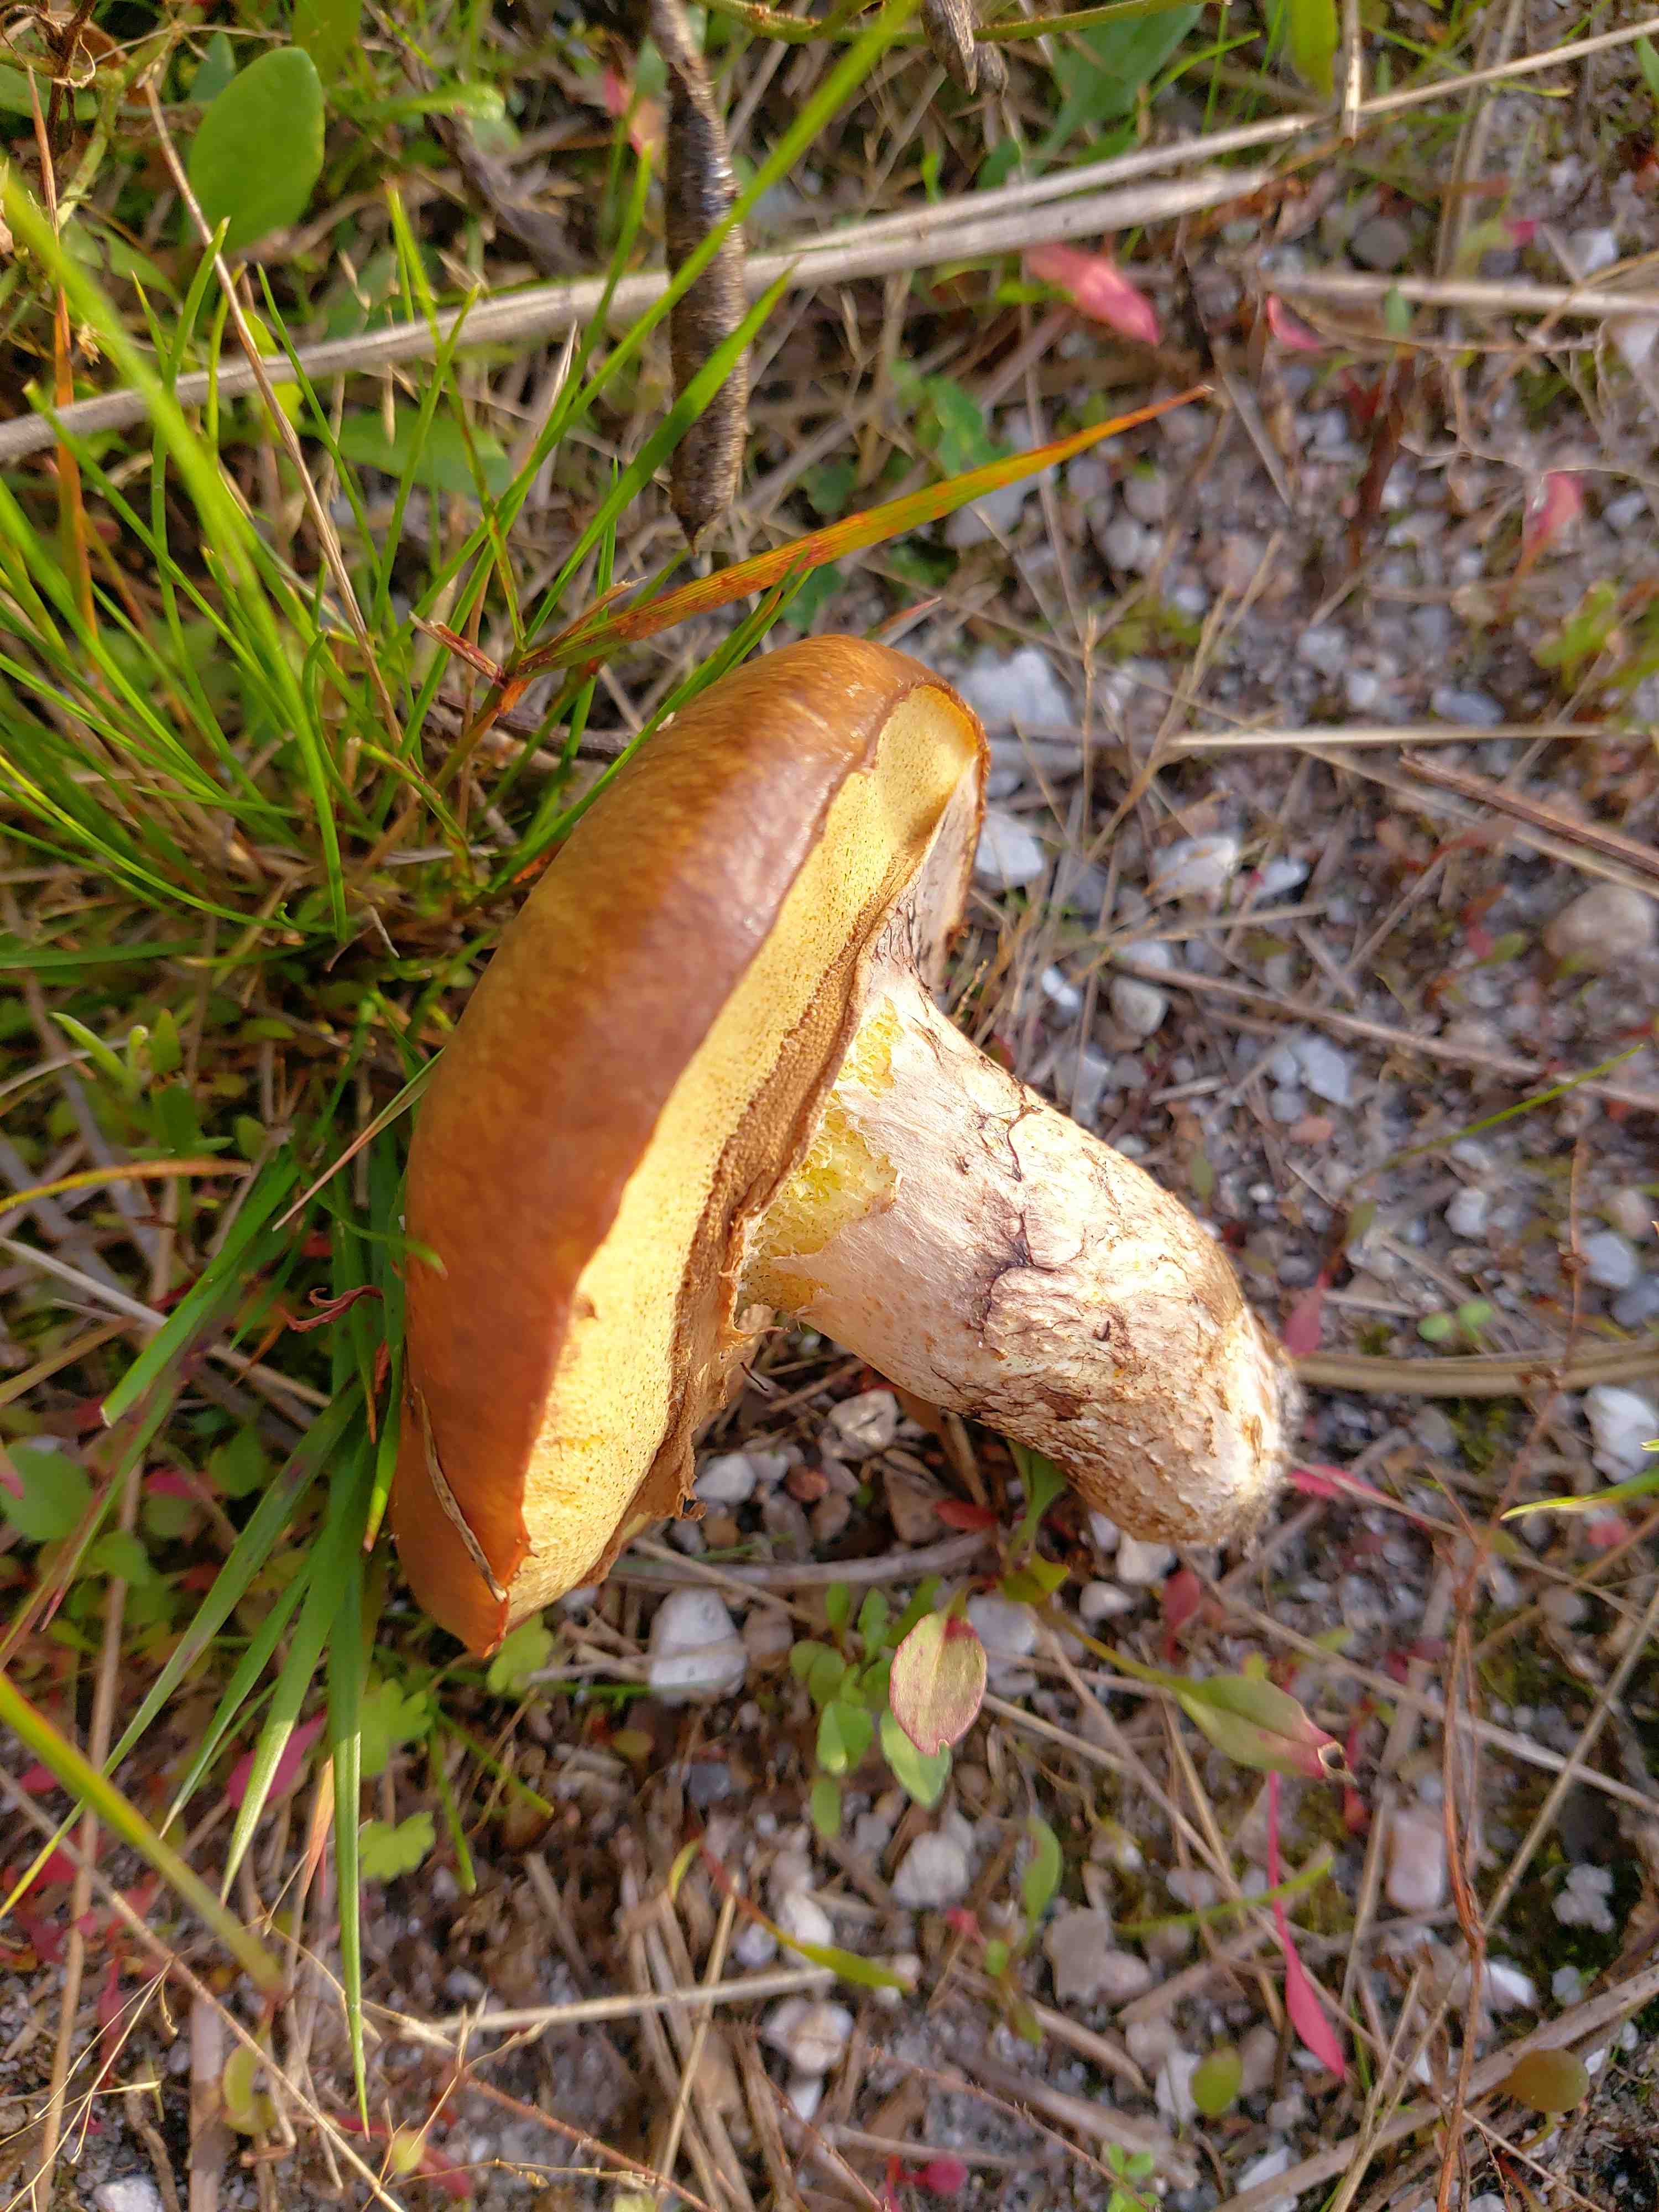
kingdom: Fungi
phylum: Basidiomycota
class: Agaricomycetes
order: Boletales
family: Suillaceae
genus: Suillus
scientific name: Suillus luteus
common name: brungul slimrørhat
